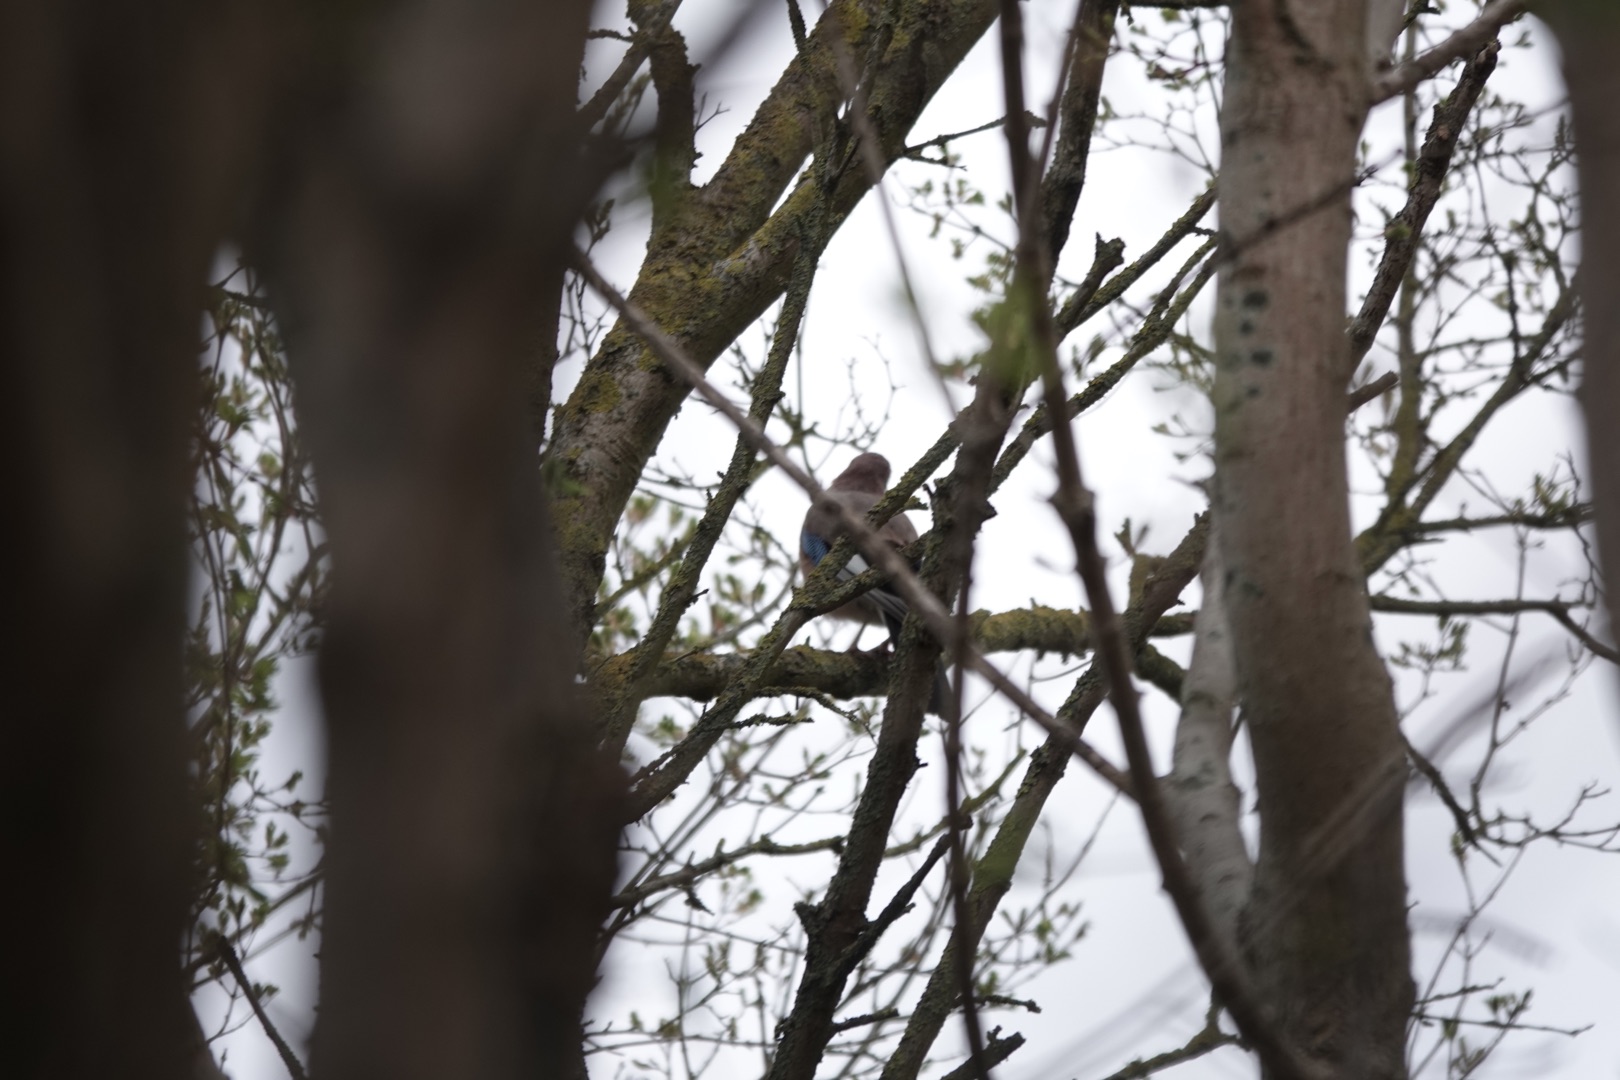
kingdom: Animalia
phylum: Chordata
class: Aves
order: Passeriformes
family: Corvidae
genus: Garrulus
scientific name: Garrulus glandarius
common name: Skovskade
